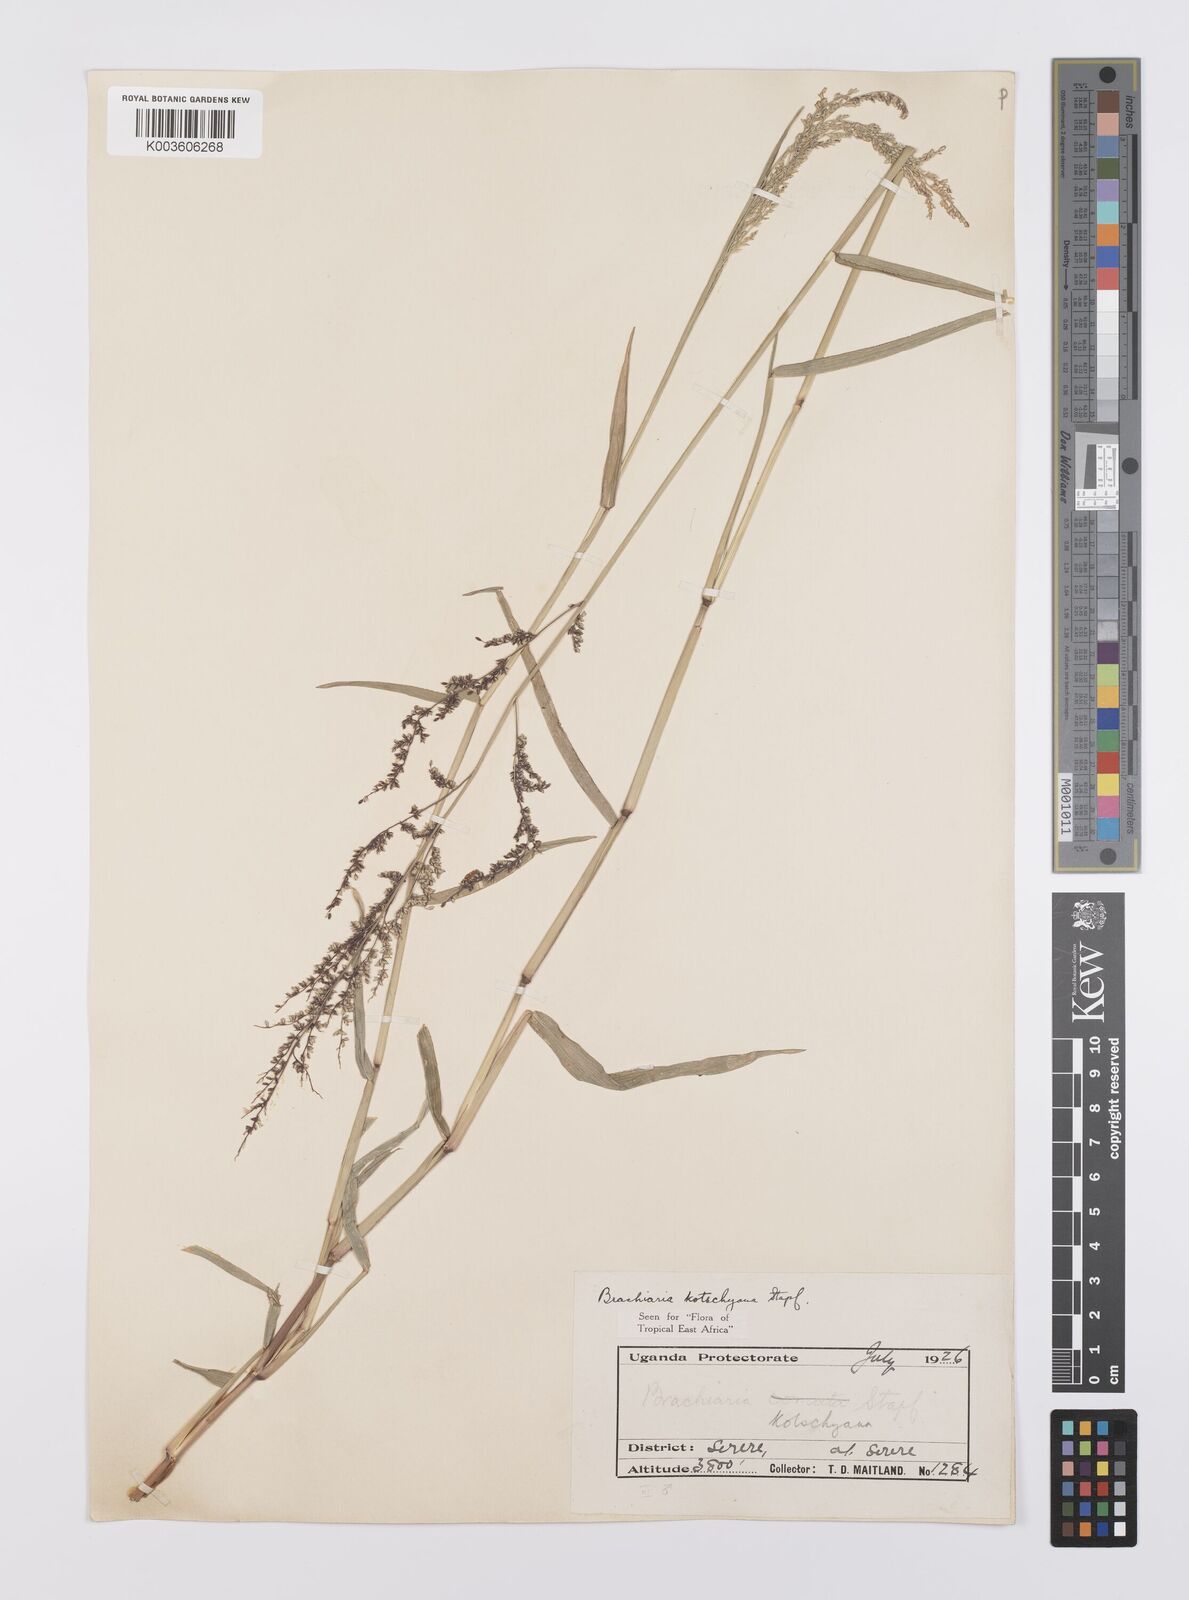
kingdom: Plantae
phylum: Tracheophyta
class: Liliopsida
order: Poales
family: Poaceae
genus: Urochloa
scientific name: Urochloa comata
